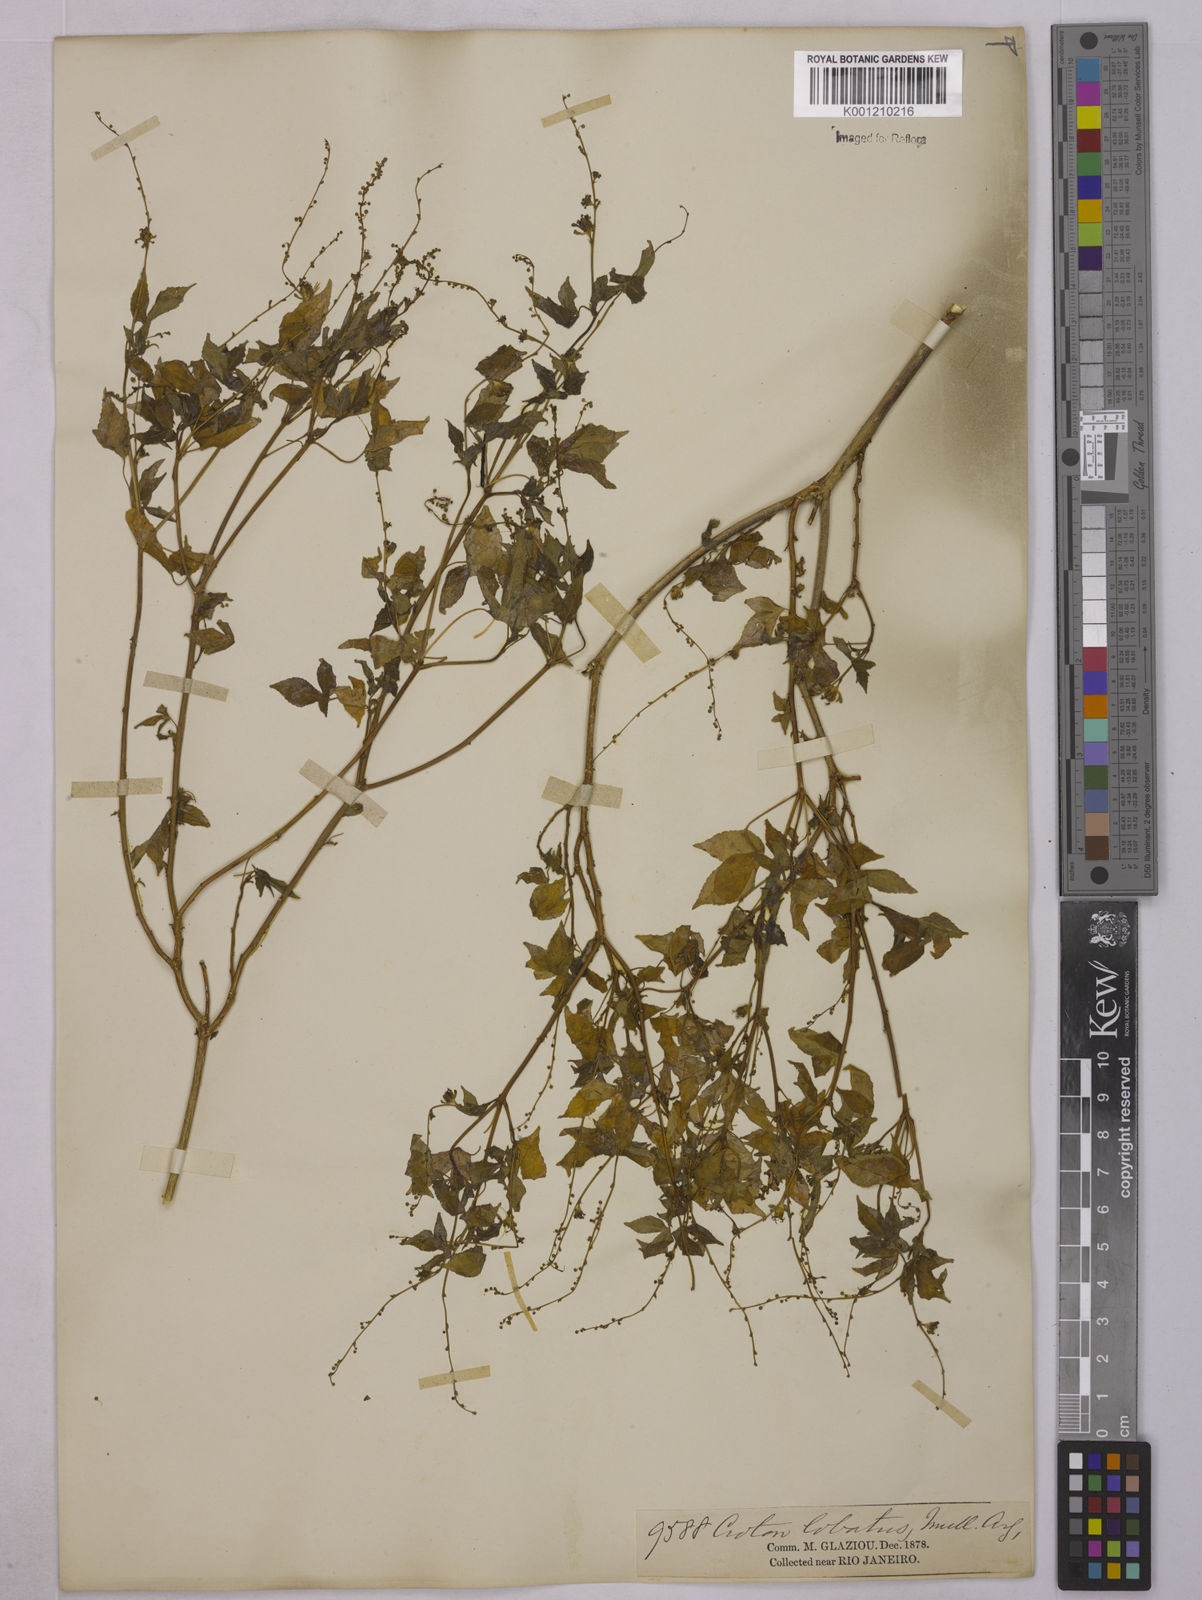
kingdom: Plantae
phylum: Tracheophyta
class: Magnoliopsida
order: Malpighiales
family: Euphorbiaceae
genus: Astraea
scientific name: Astraea lobata
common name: Lobed croton
